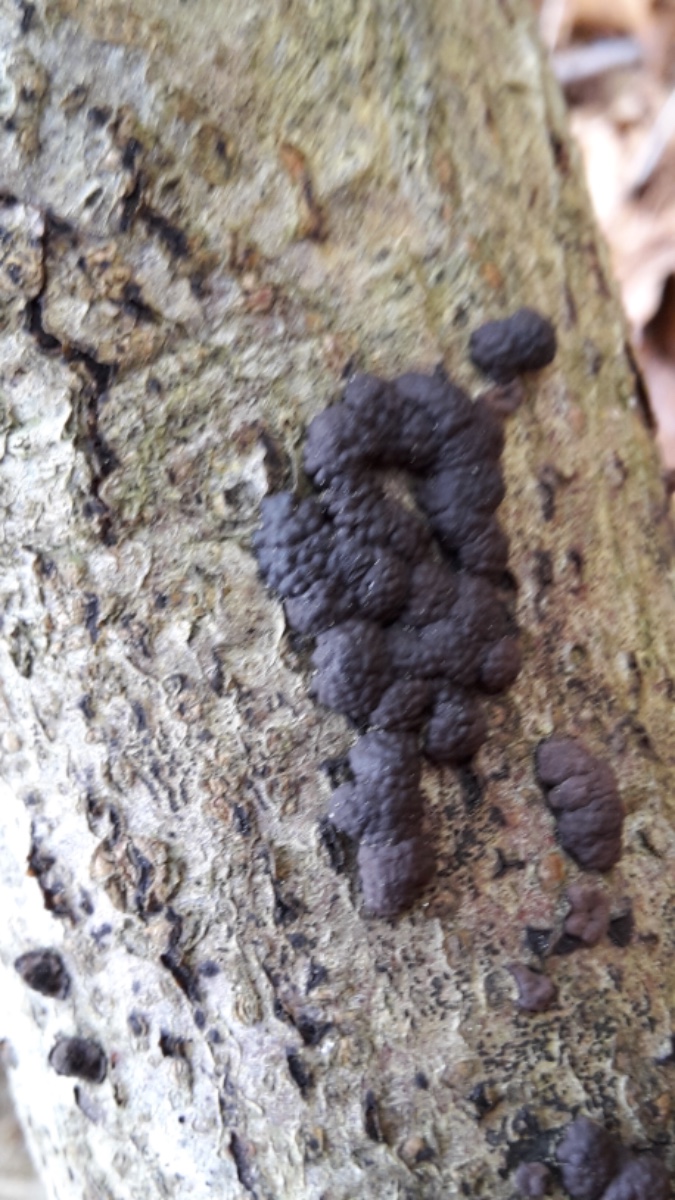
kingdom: Fungi
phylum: Ascomycota
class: Sordariomycetes
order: Xylariales
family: Hypoxylaceae
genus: Jackrogersella
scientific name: Jackrogersella cohaerens
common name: sammenflydende kulbær
